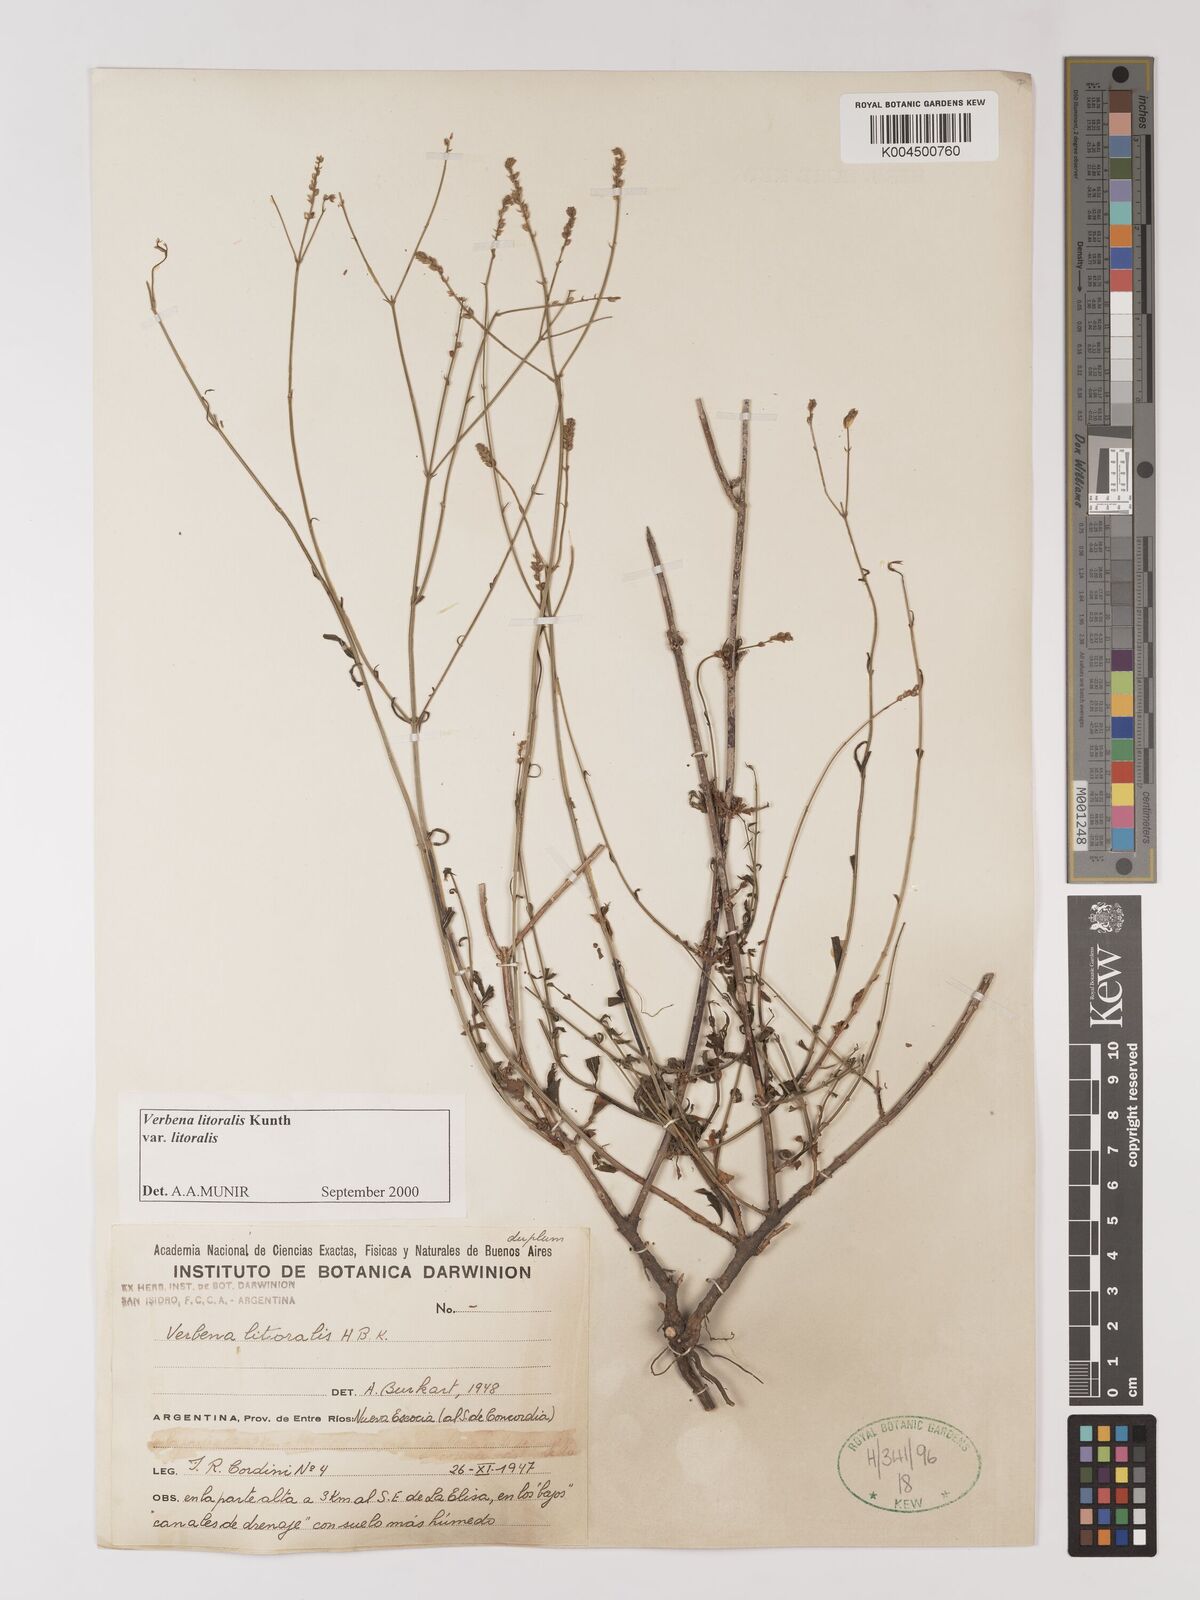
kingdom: Plantae
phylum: Tracheophyta
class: Magnoliopsida
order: Lamiales
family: Verbenaceae
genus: Verbena
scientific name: Verbena litoralis
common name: Seashore vervain
